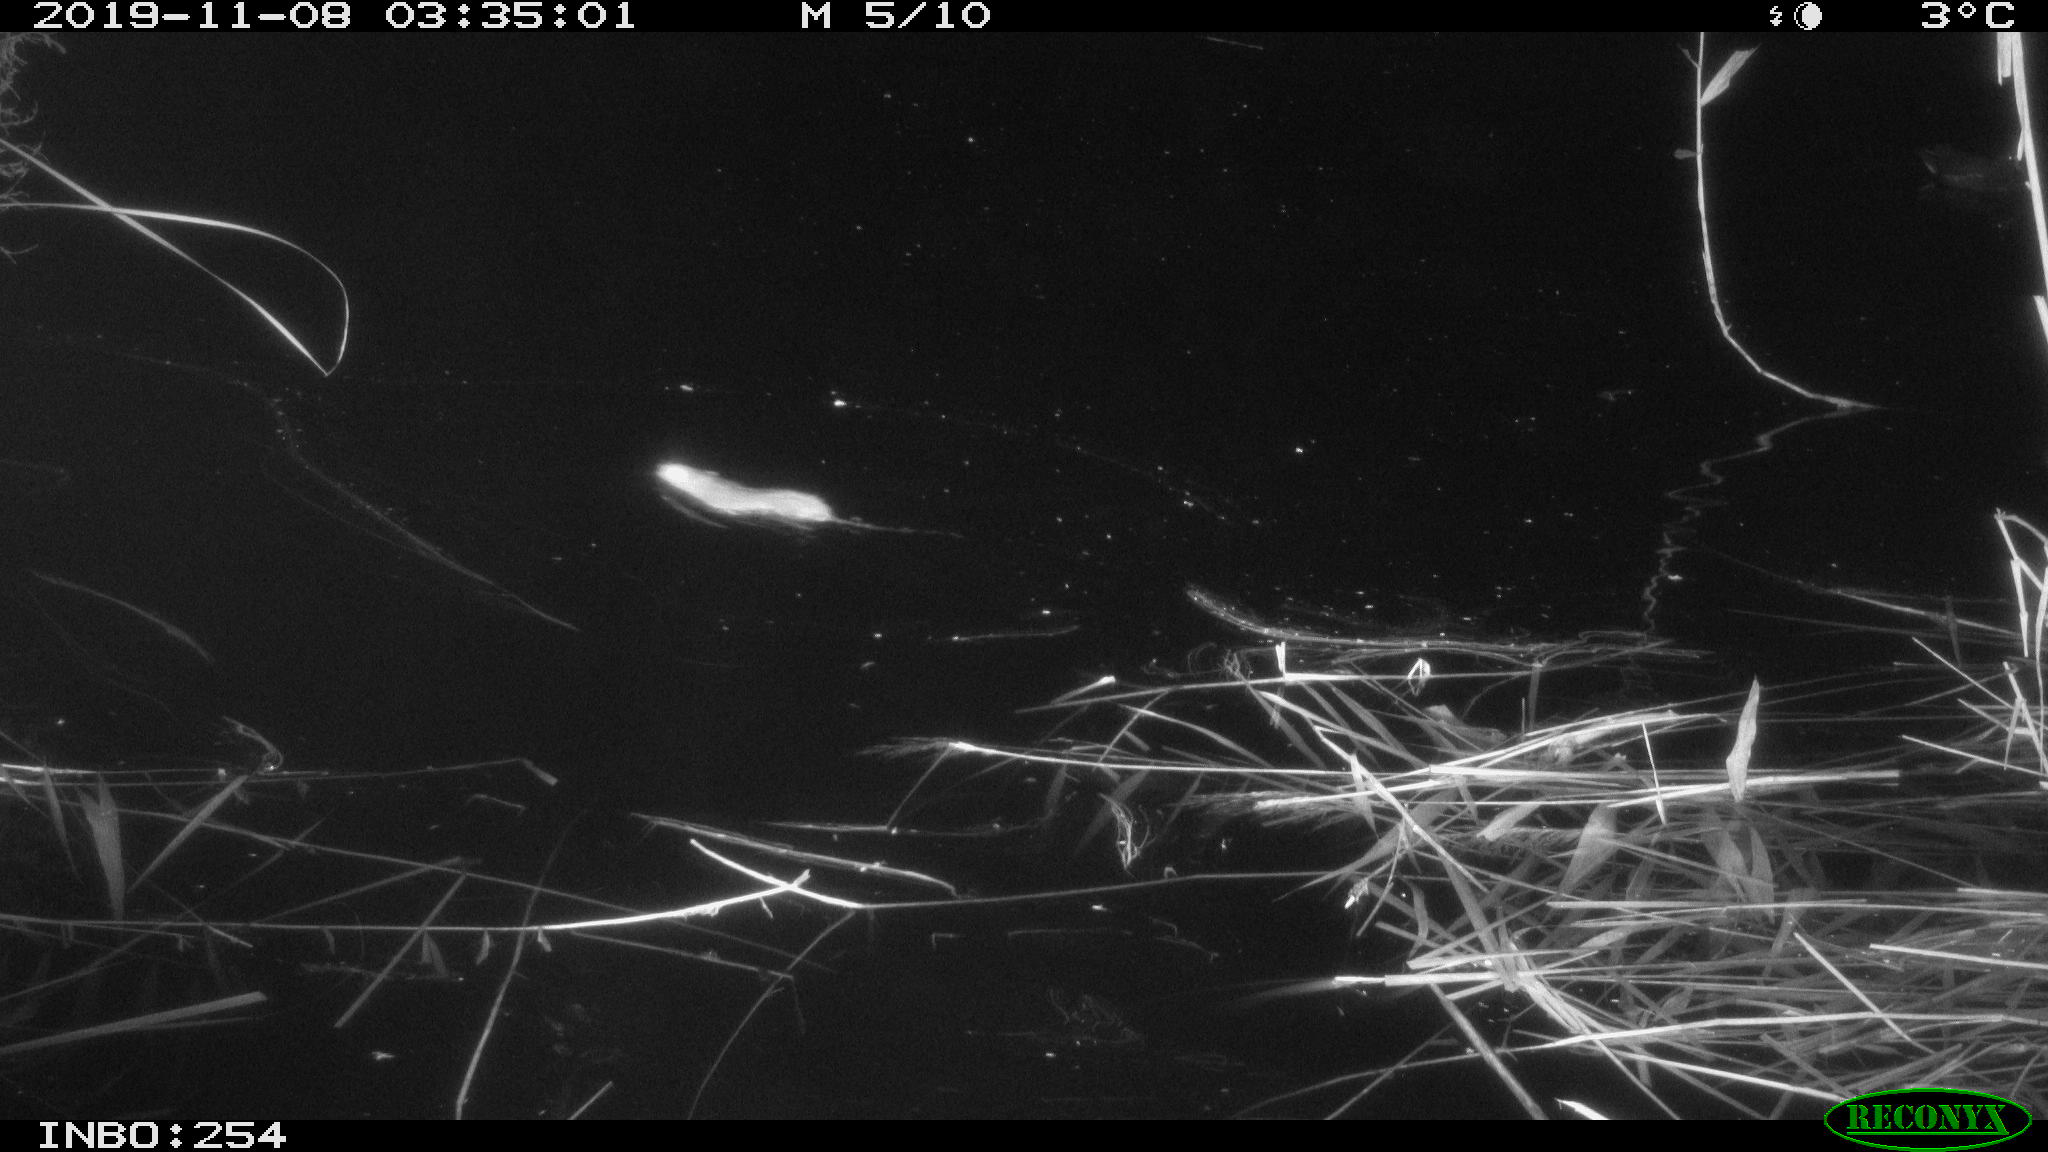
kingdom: Animalia
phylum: Chordata
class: Mammalia
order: Rodentia
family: Cricetidae
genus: Ondatra
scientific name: Ondatra zibethicus
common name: Muskrat
